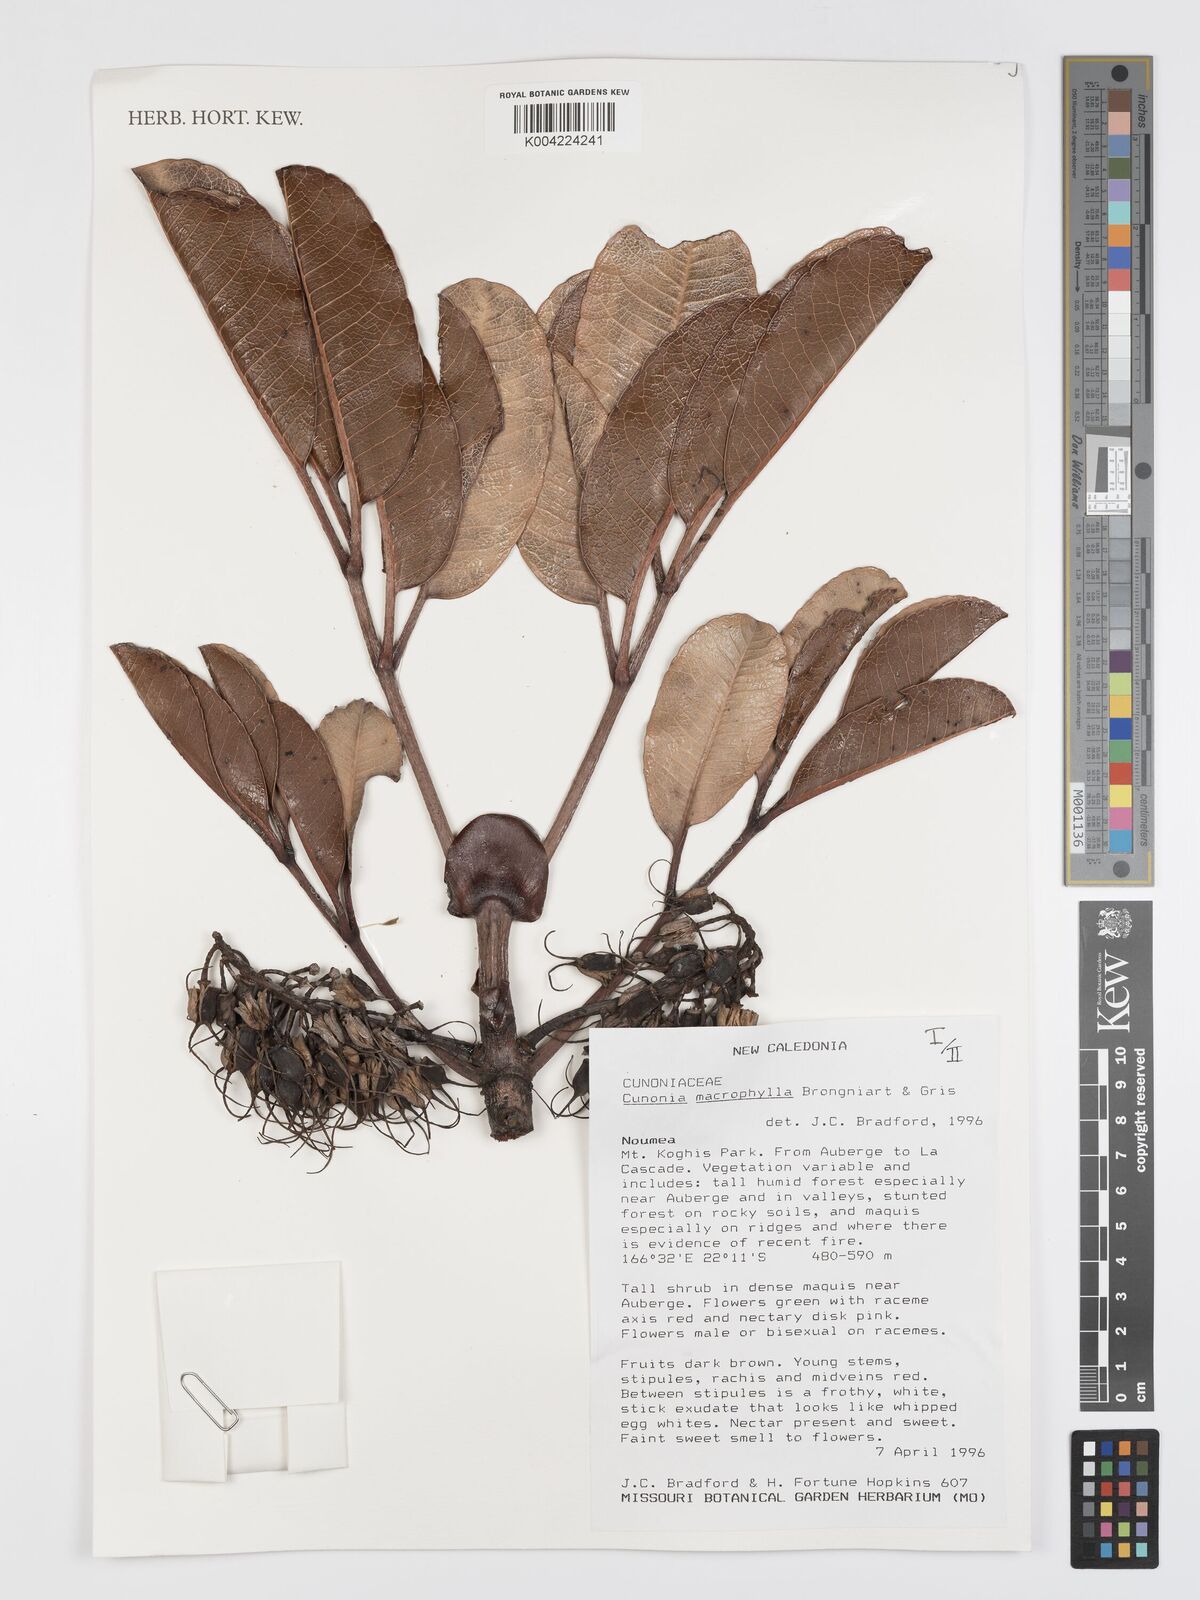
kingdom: Plantae
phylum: Tracheophyta
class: Magnoliopsida
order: Oxalidales
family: Cunoniaceae
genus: Cunonia
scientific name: Cunonia macrophylla
